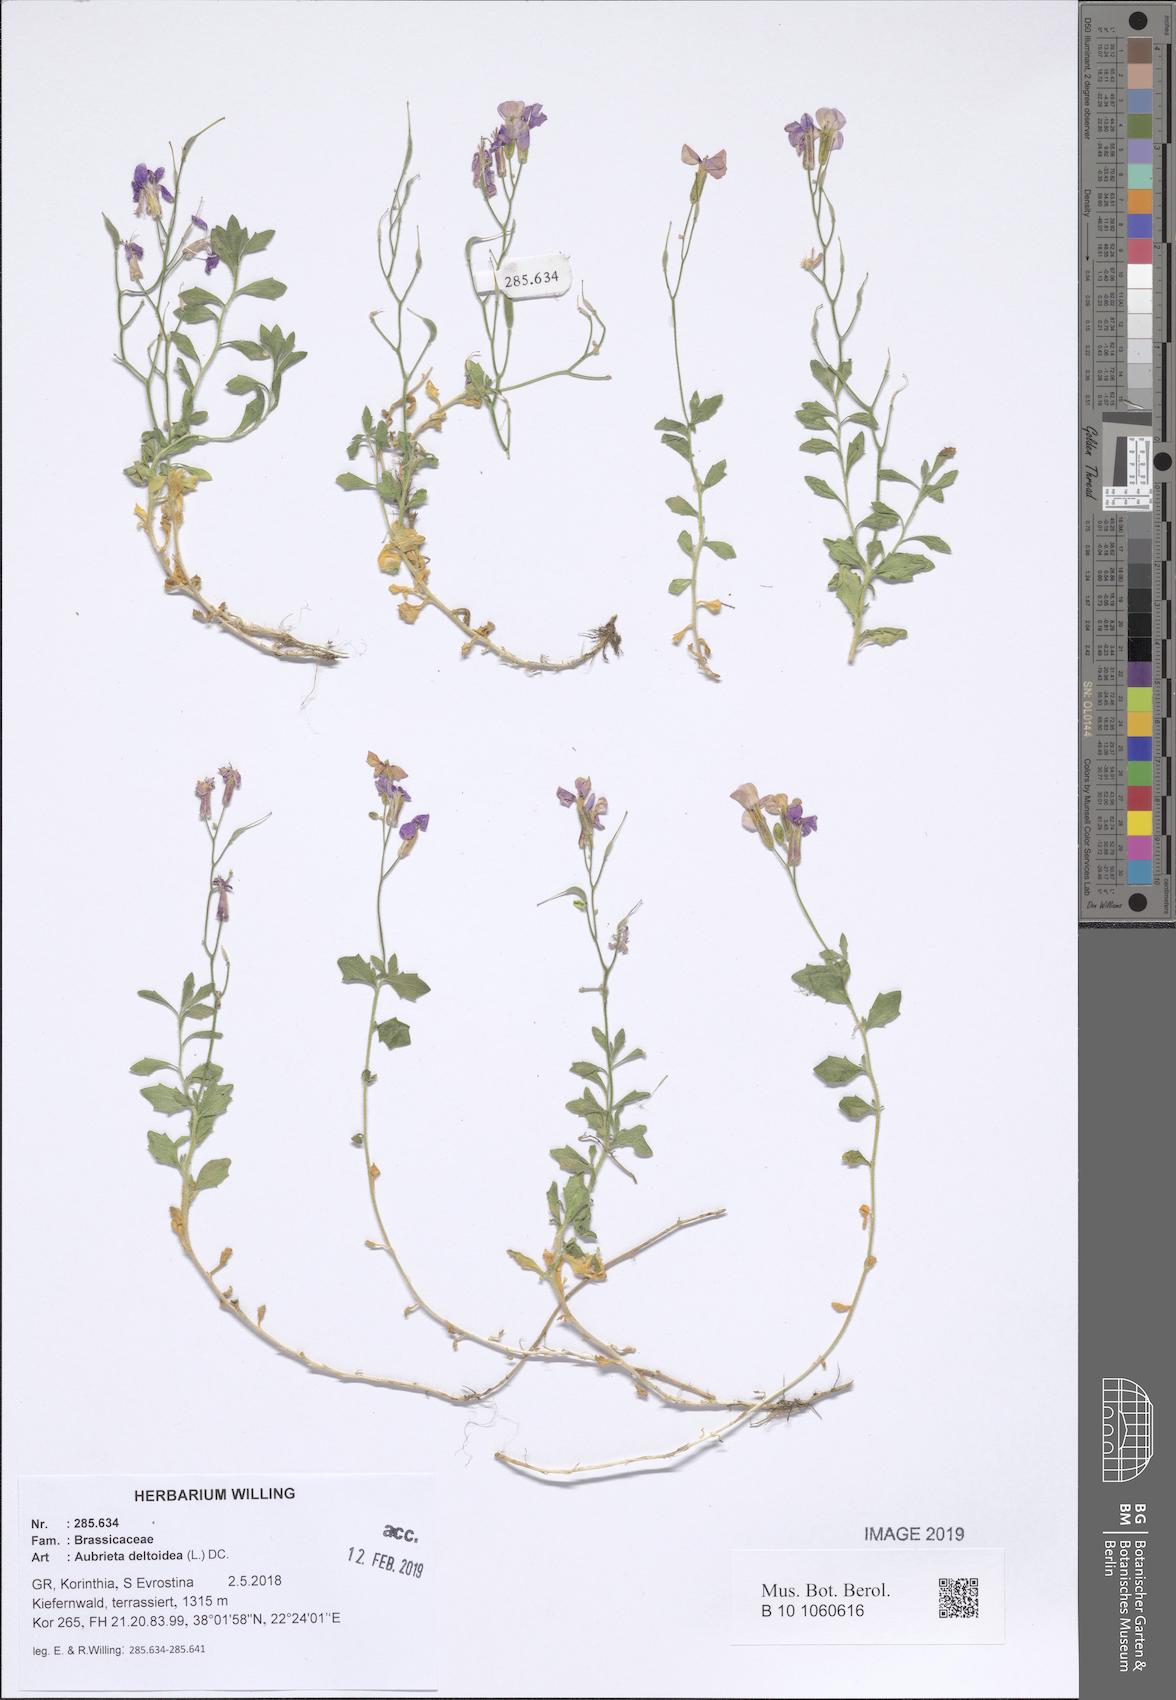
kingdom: Plantae
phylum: Tracheophyta
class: Magnoliopsida
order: Brassicales
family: Brassicaceae
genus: Aubrieta
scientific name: Aubrieta deltoidea
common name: Aubretia
